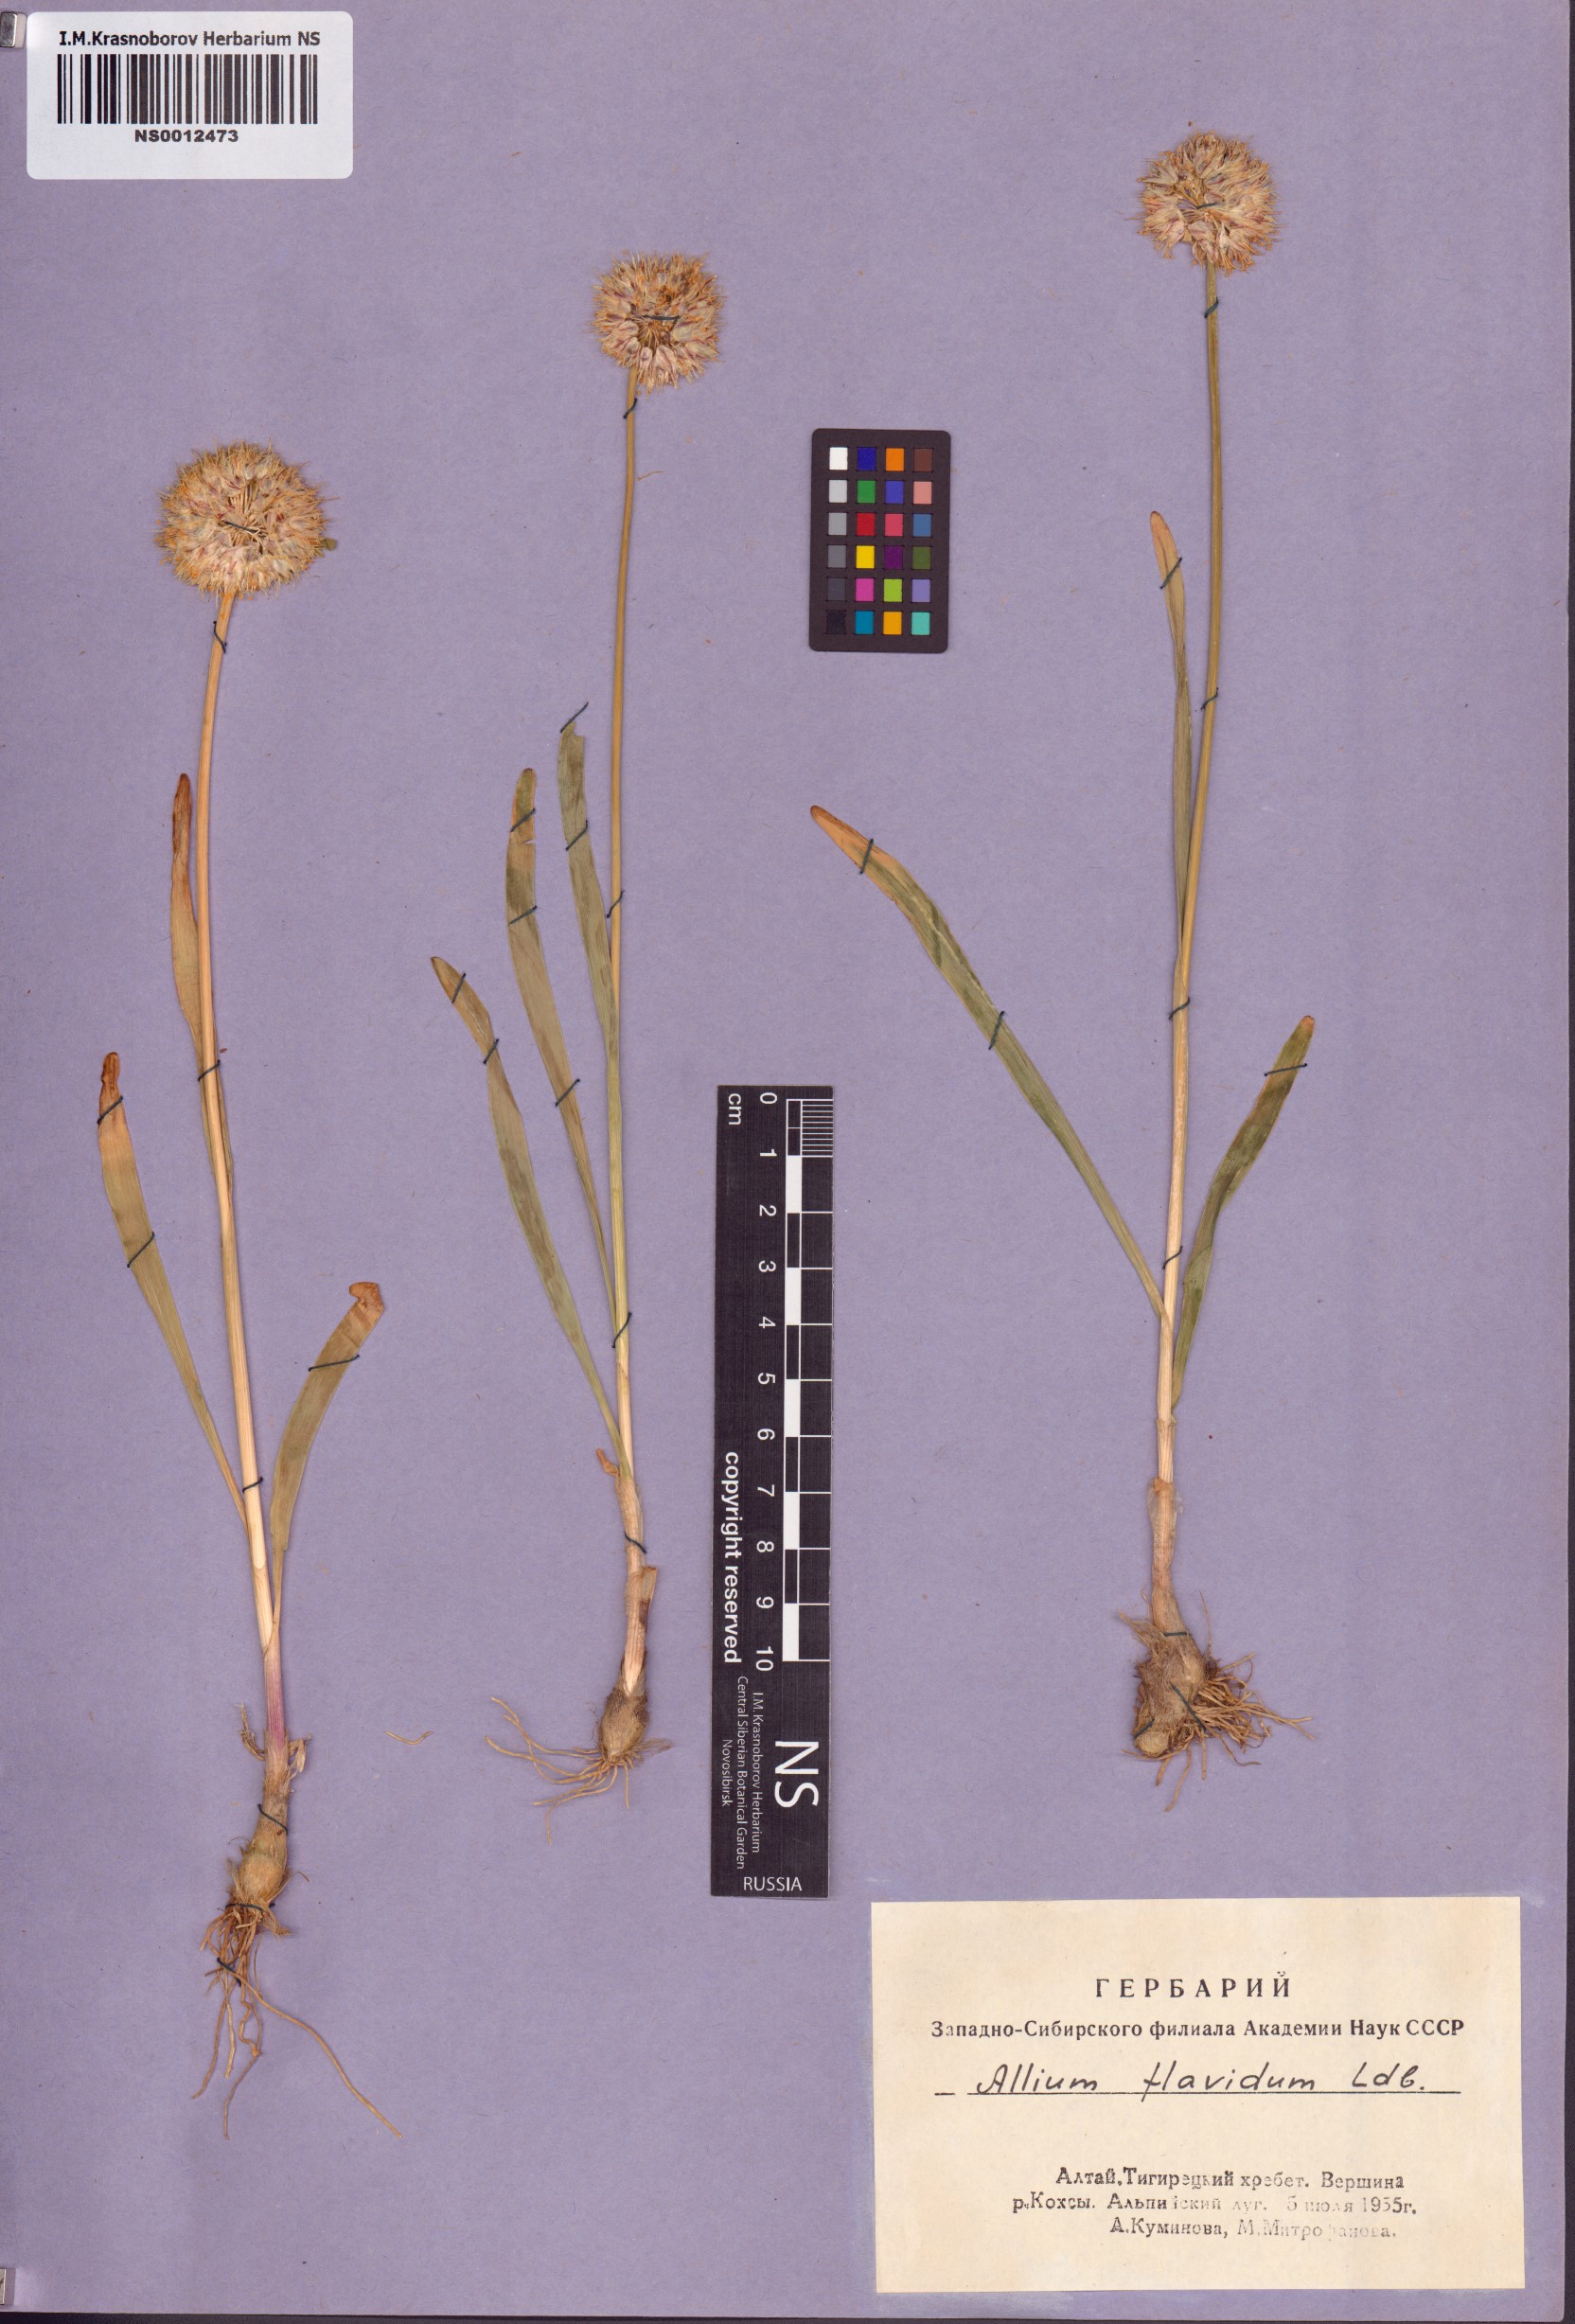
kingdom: Plantae
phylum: Tracheophyta
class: Liliopsida
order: Asparagales
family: Amaryllidaceae
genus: Allium
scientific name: Allium flavidum
